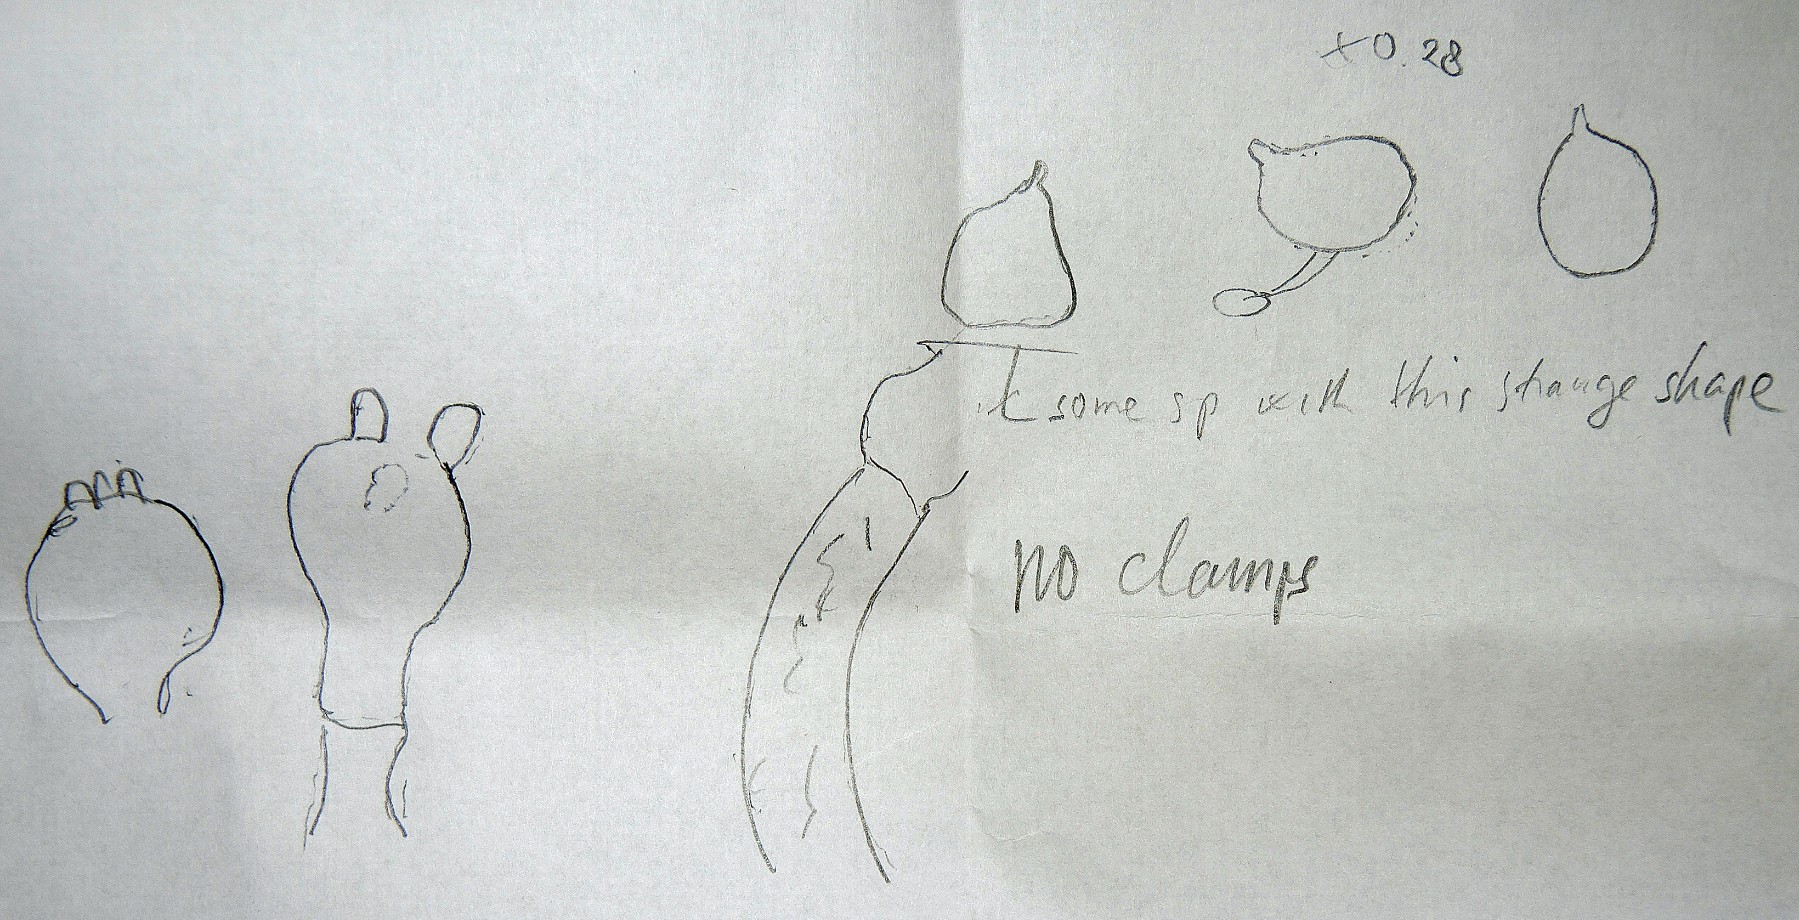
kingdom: Fungi
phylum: Basidiomycota
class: Agaricomycetes
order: Cantharellales
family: Oliveoniaceae
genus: Oliveonia
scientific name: Oliveonia
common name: repeterhinde
